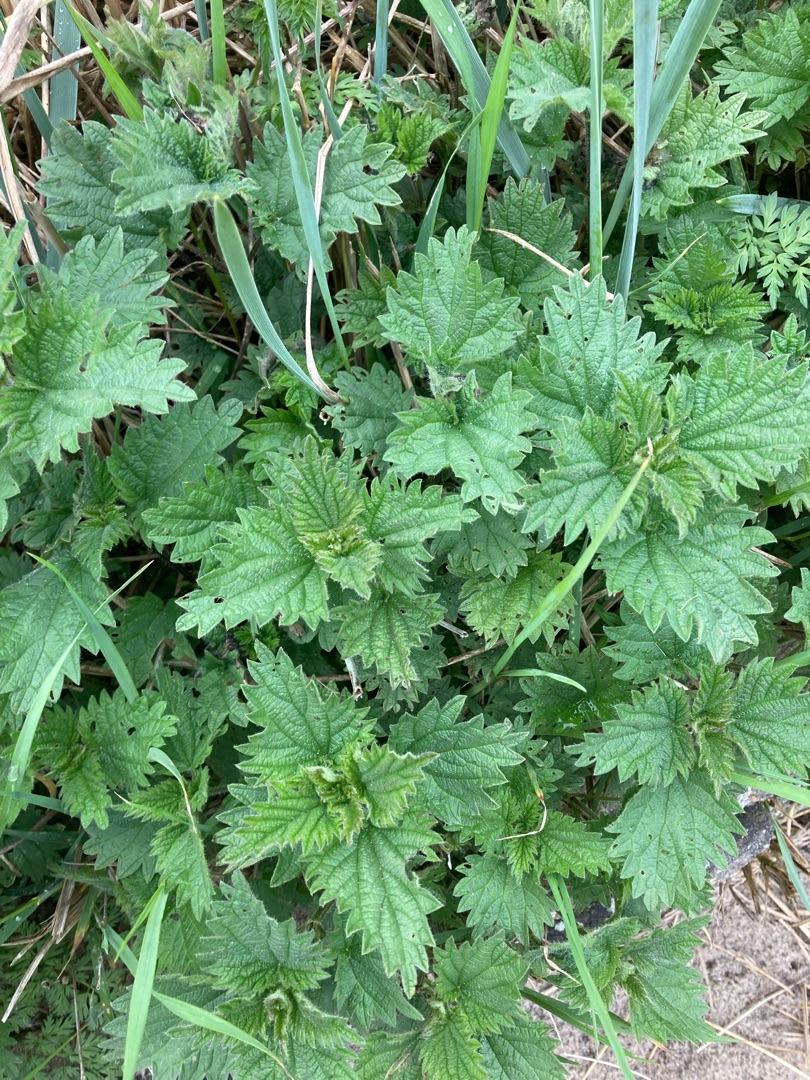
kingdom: Plantae
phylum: Tracheophyta
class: Magnoliopsida
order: Rosales
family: Urticaceae
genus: Urtica
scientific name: Urtica dioica
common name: Stor nælde
